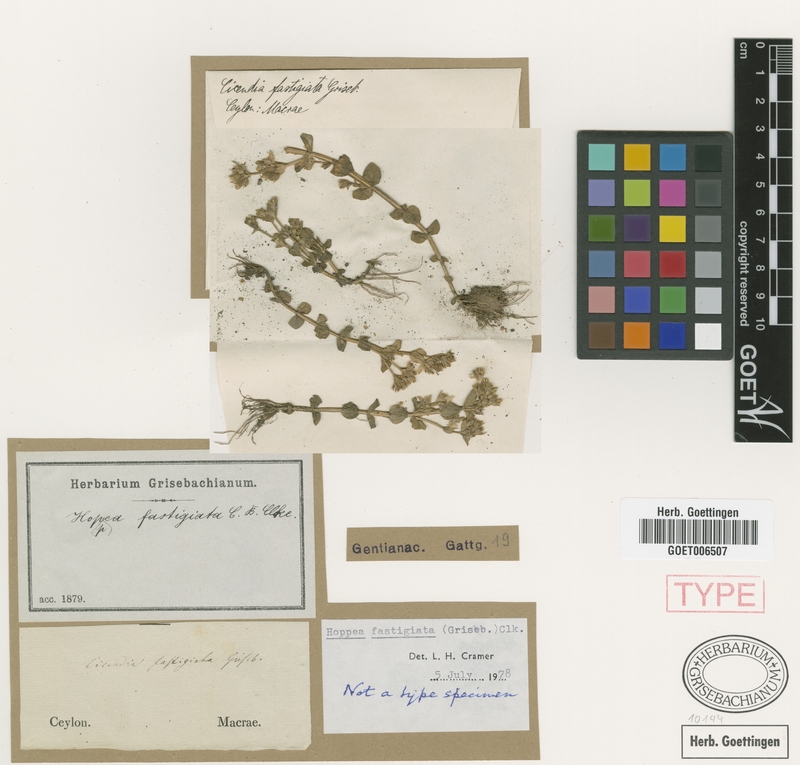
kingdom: Plantae
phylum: Tracheophyta
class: Magnoliopsida
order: Gentianales
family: Gentianaceae
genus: Hoppea
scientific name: Hoppea fastigiata
